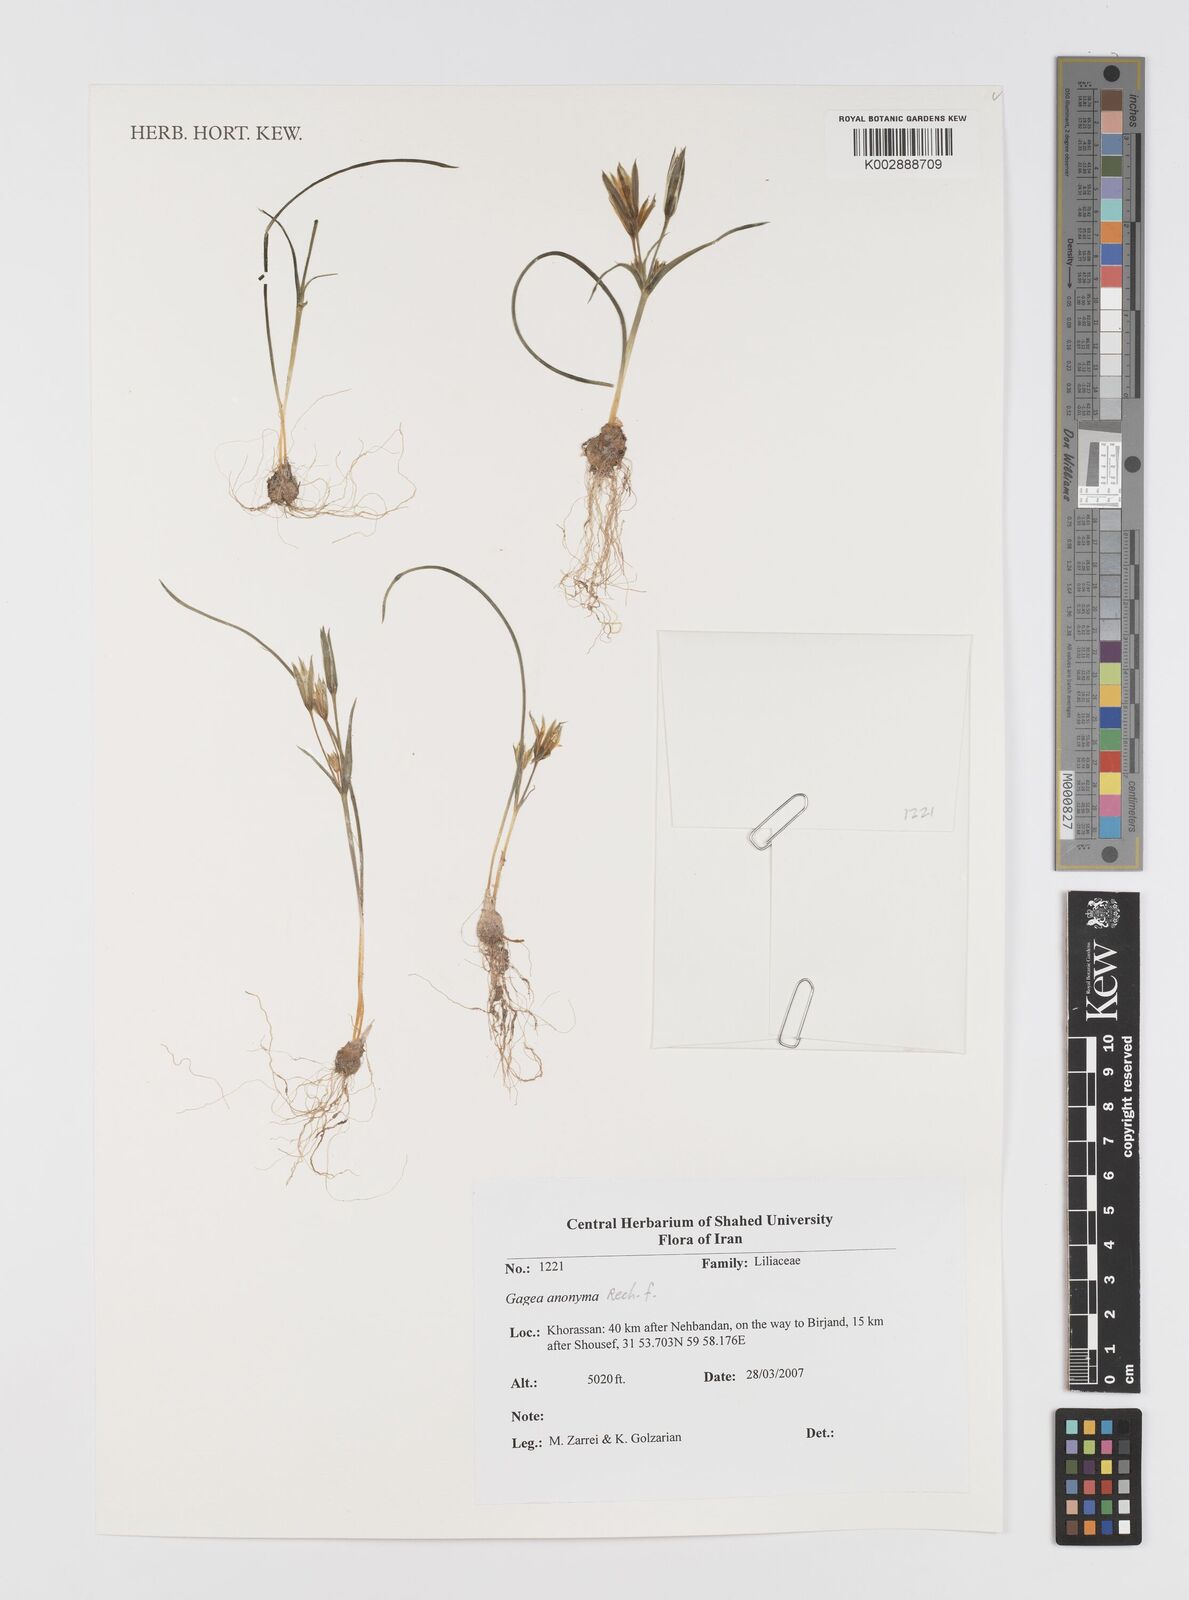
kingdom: Plantae
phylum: Tracheophyta
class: Liliopsida
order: Liliales
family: Liliaceae
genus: Gagea
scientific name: Gagea setifolia
